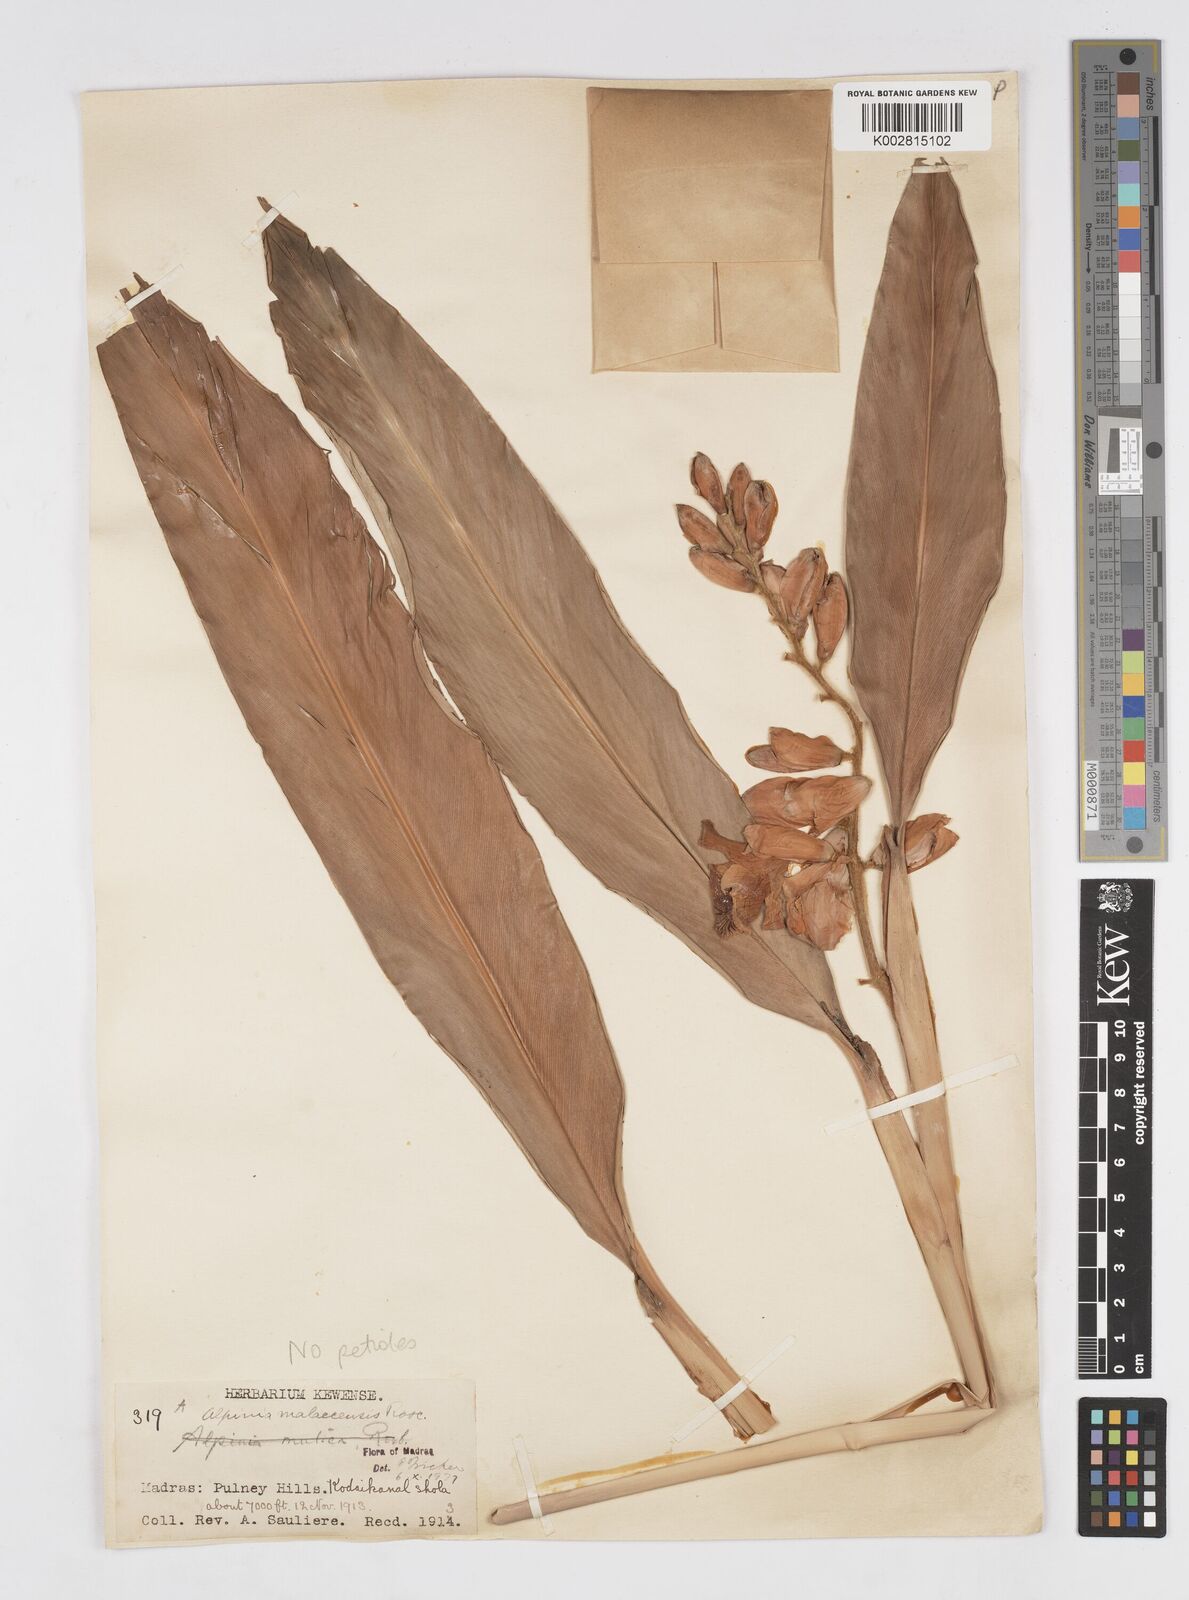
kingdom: Plantae
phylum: Tracheophyta
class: Liliopsida
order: Zingiberales
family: Zingiberaceae
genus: Alpinia
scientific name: Alpinia malaccensis
